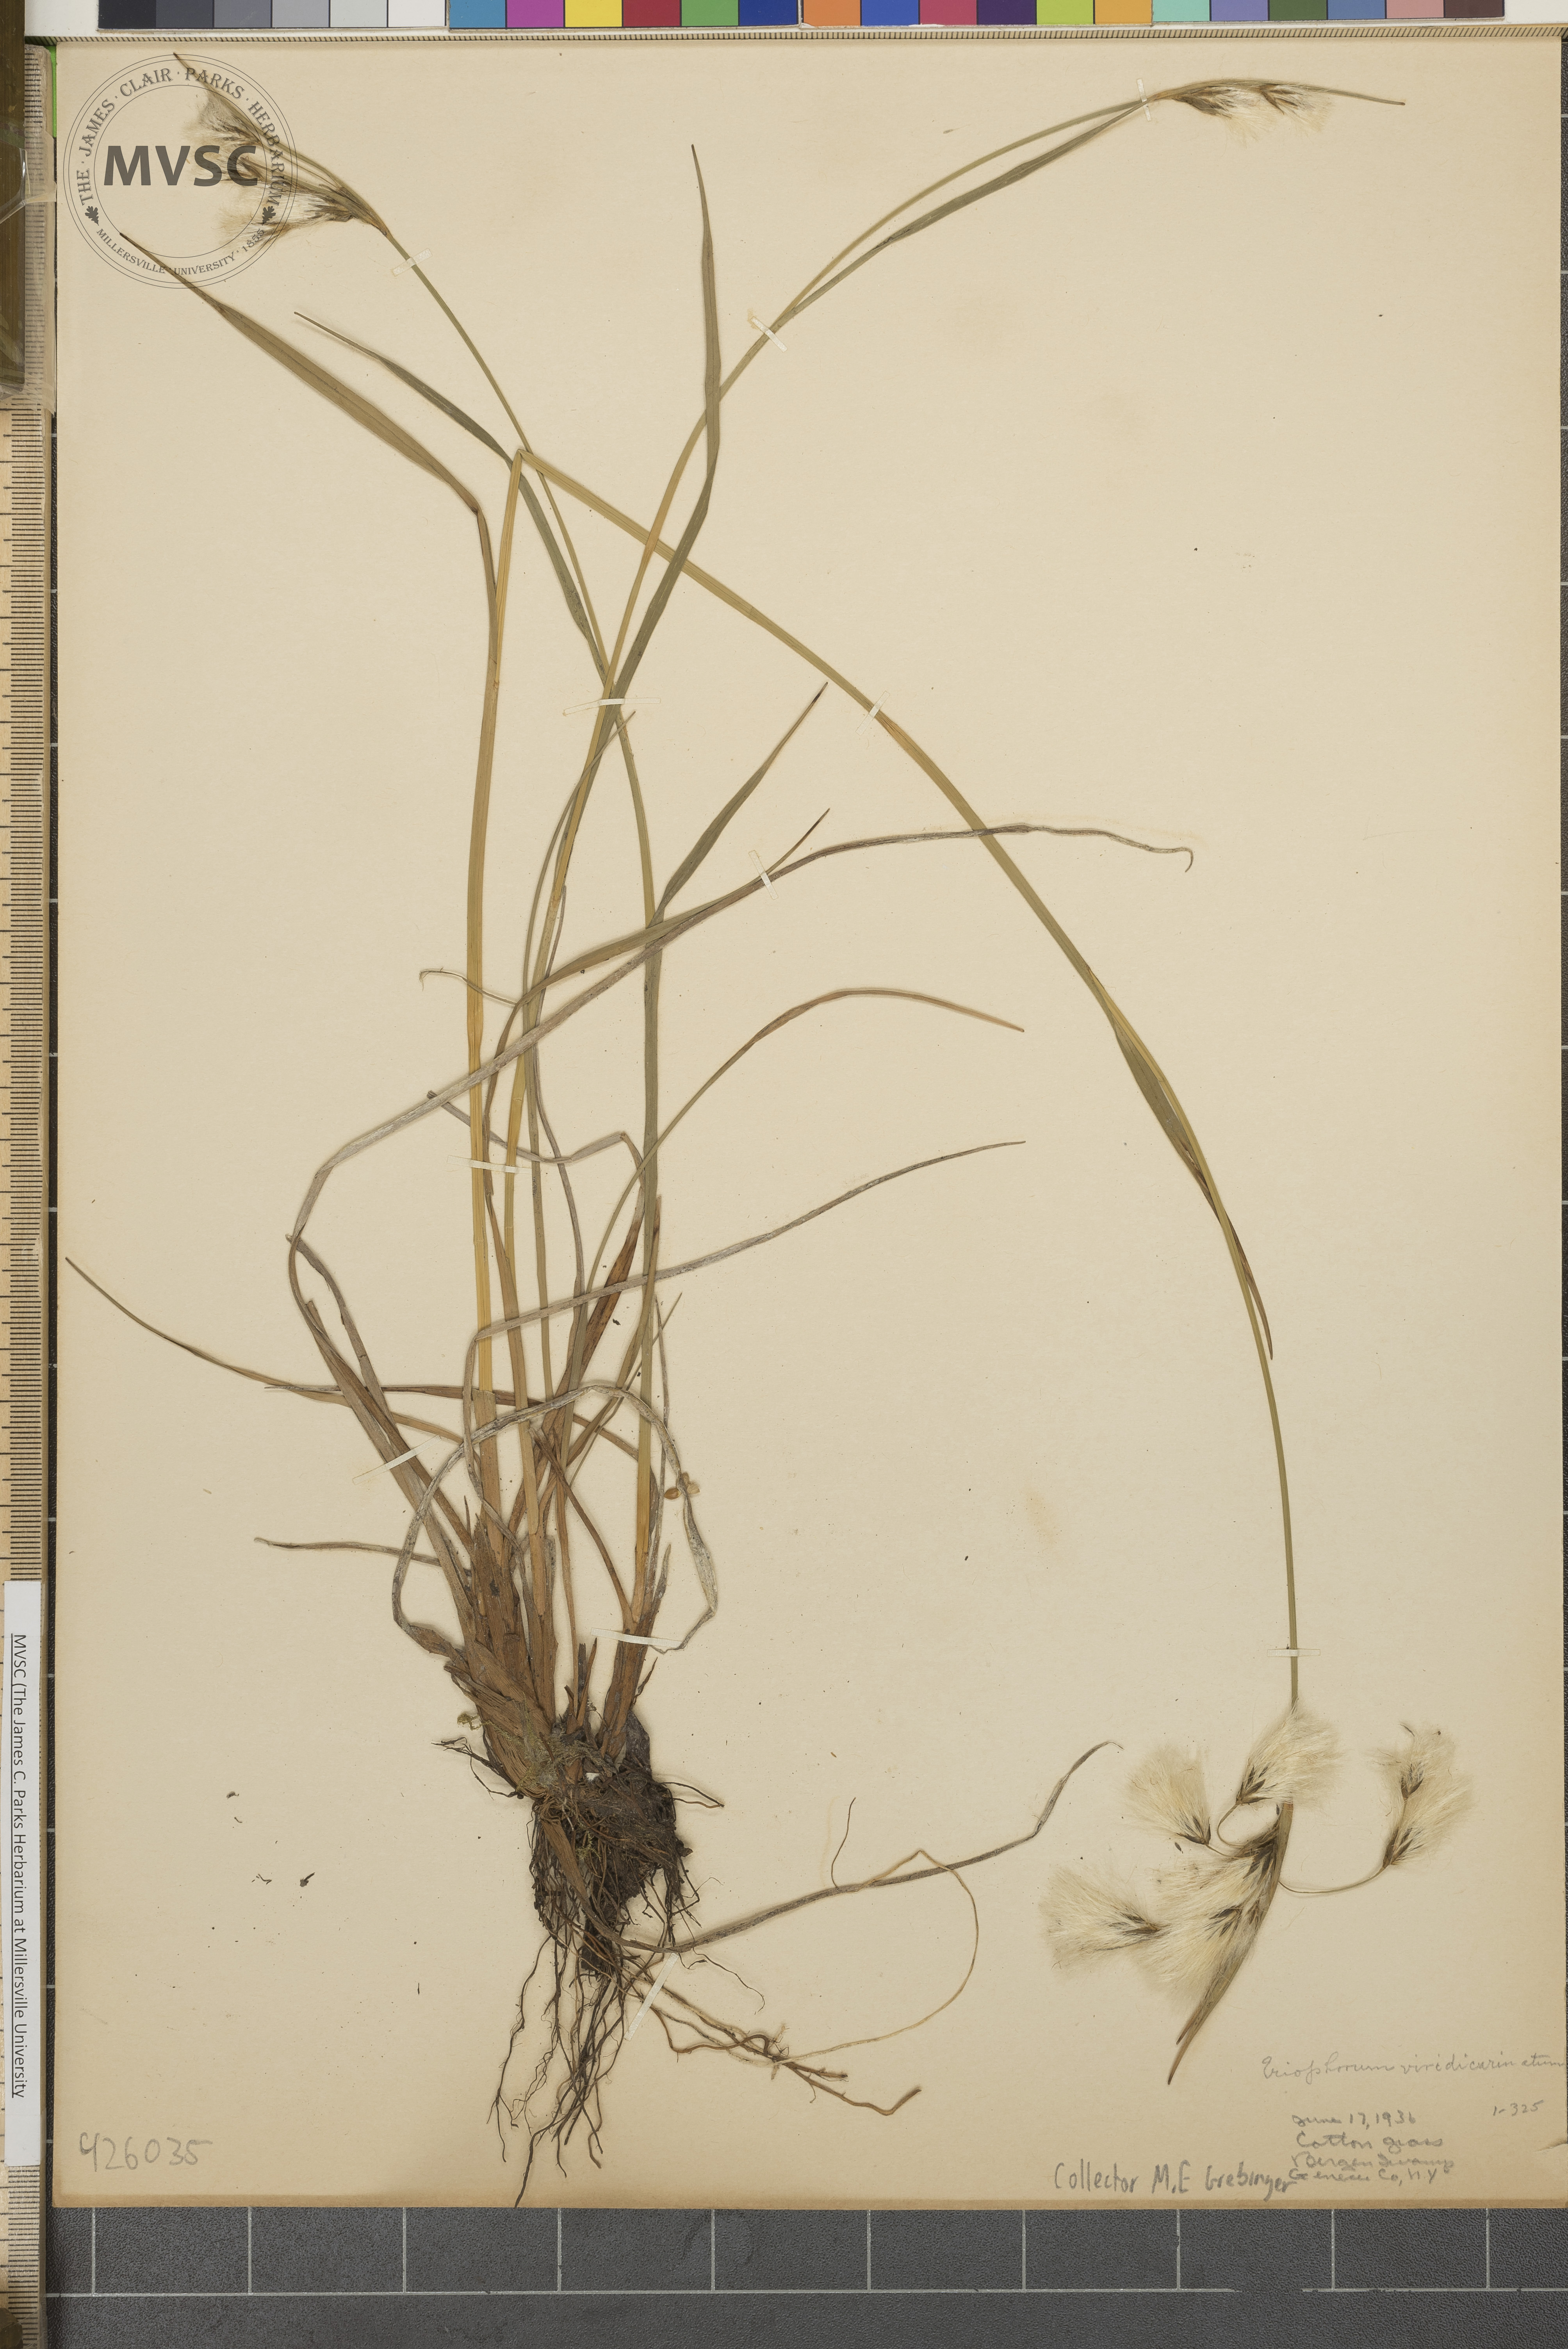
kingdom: Plantae
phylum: Tracheophyta
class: Liliopsida
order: Poales
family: Cyperaceae
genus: Eriophorum
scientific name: Eriophorum viridicarinatum
